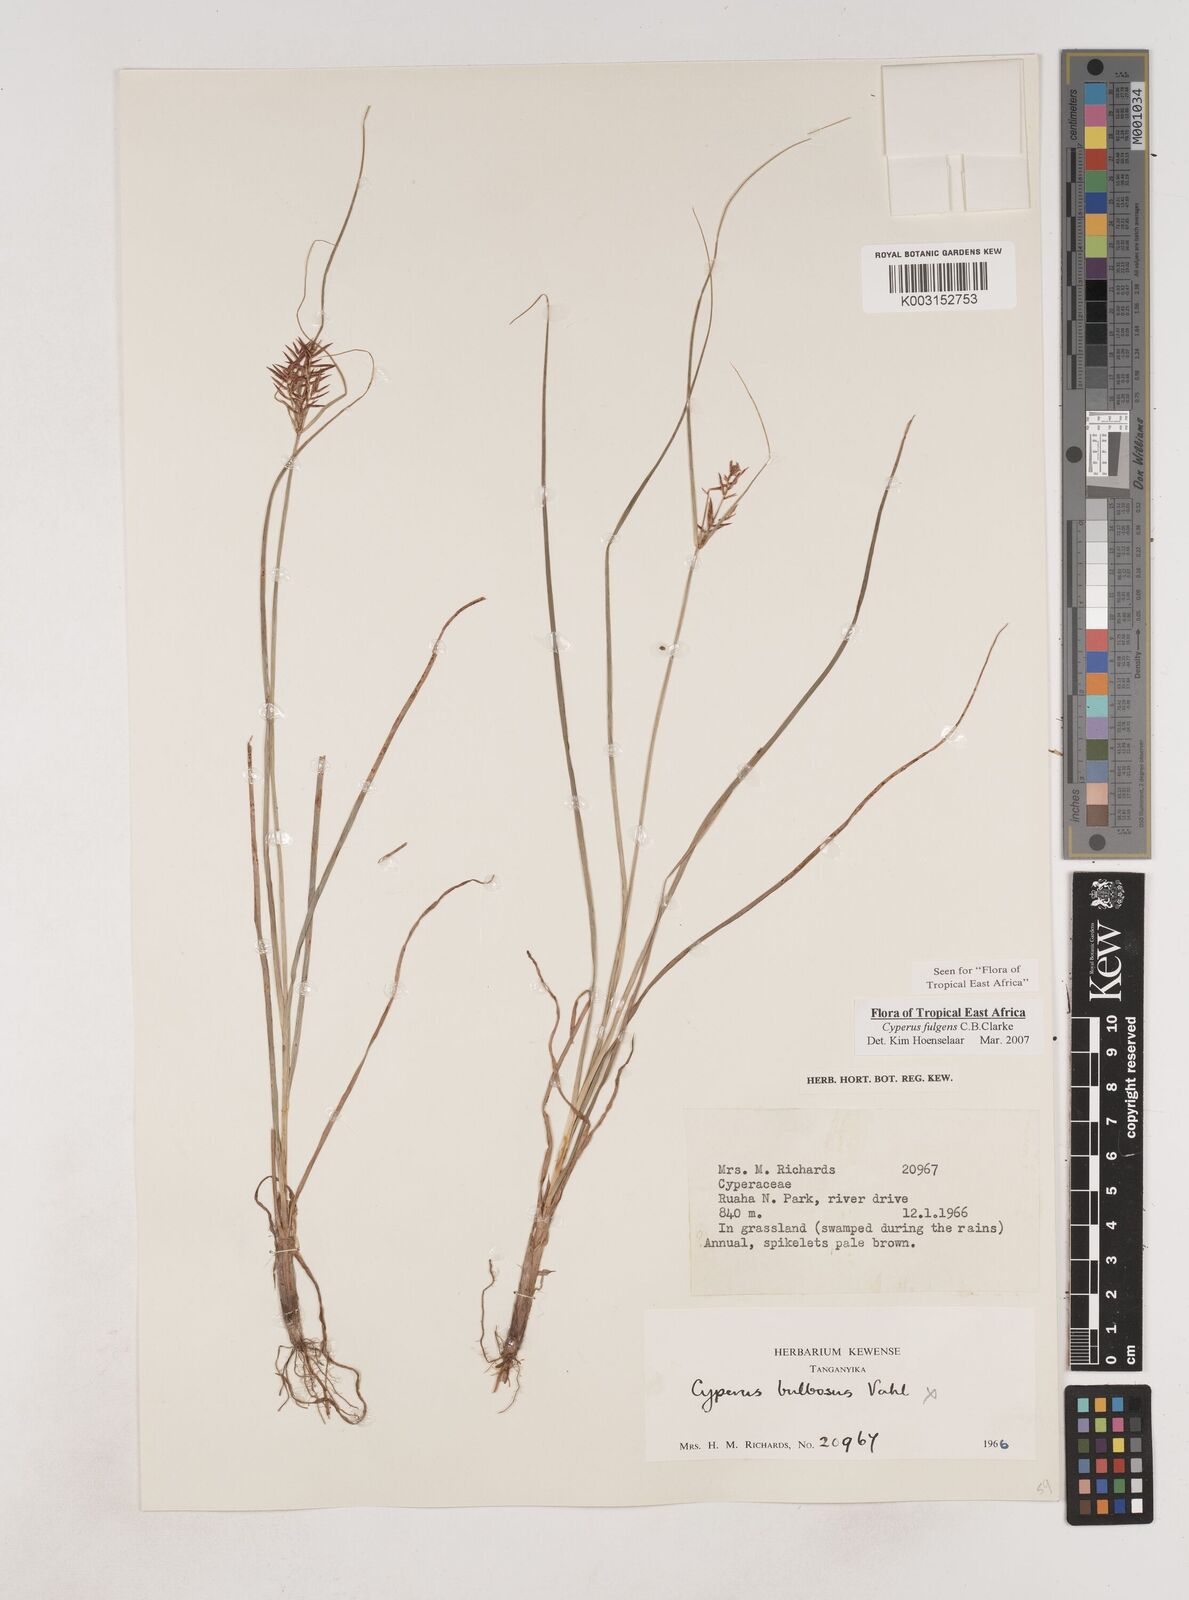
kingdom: Plantae
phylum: Tracheophyta
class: Liliopsida
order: Poales
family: Cyperaceae
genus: Cyperus
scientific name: Cyperus callistus
